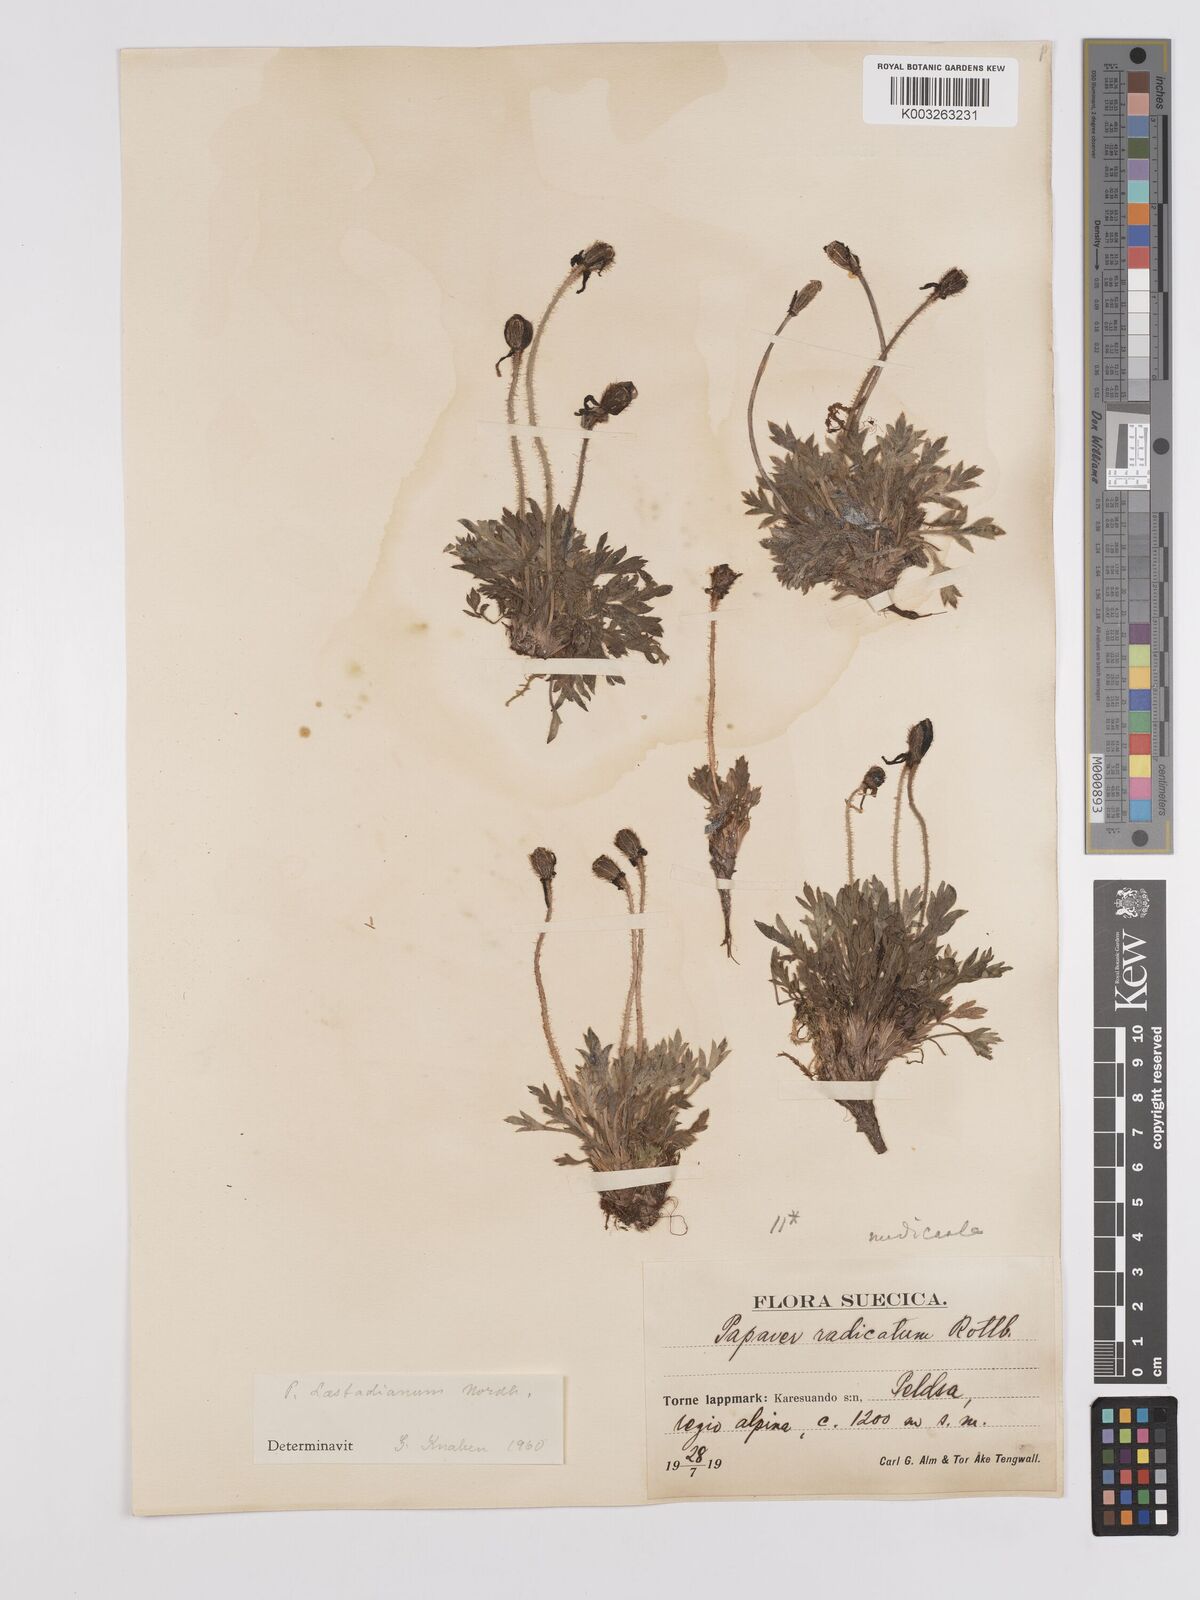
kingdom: Plantae
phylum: Tracheophyta
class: Magnoliopsida
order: Ranunculales
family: Papaveraceae
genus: Papaver
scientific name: Papaver radicatum
